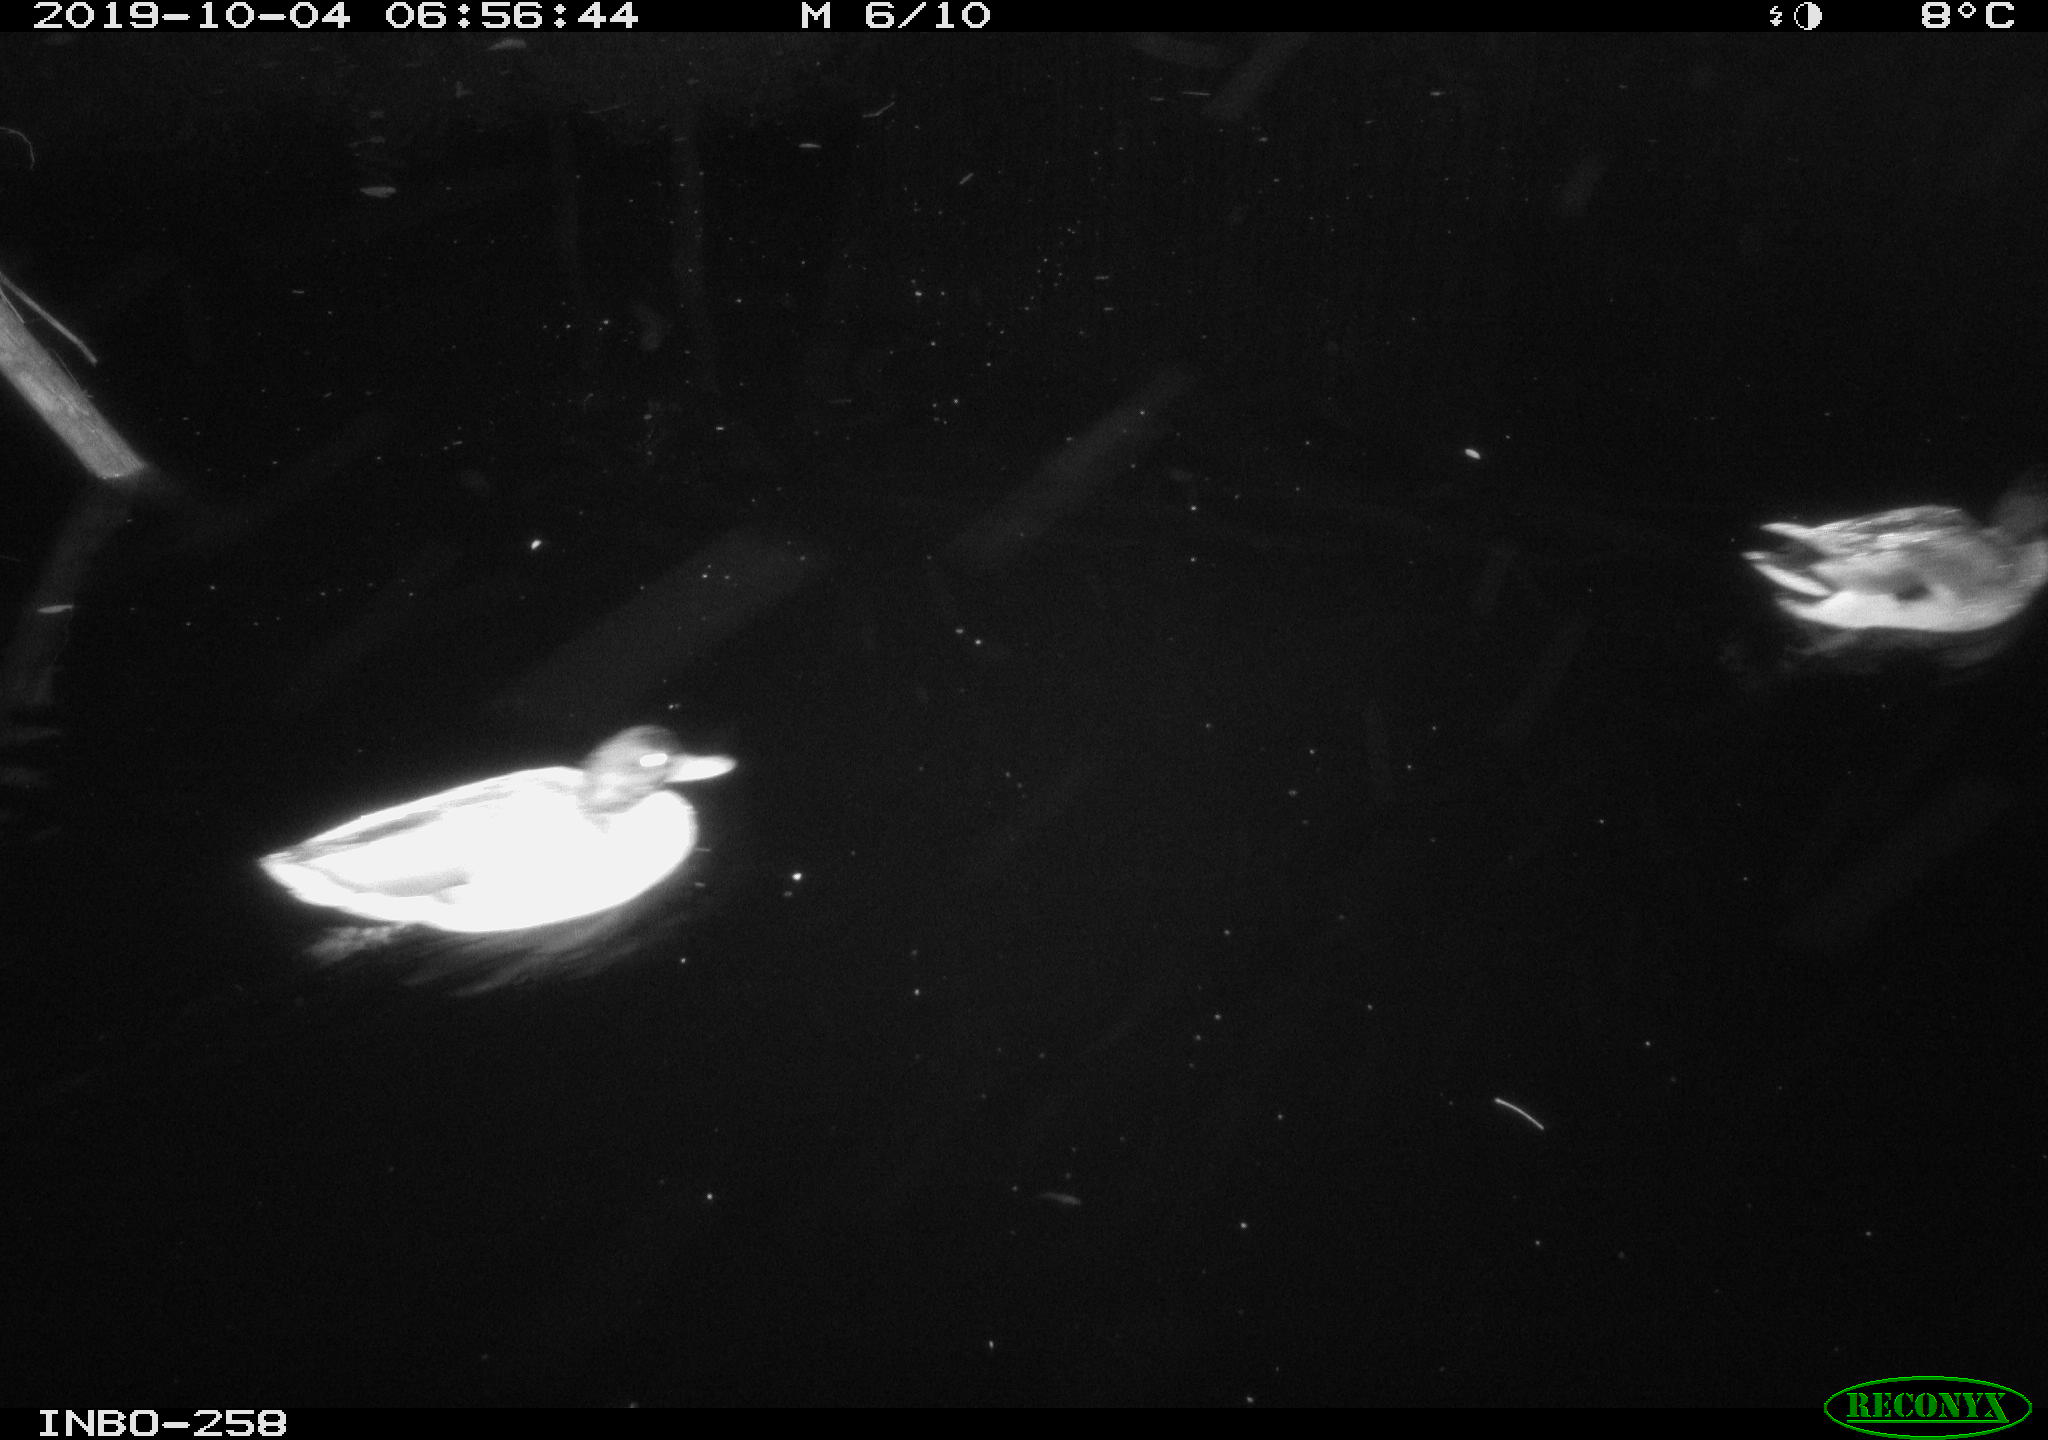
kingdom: Animalia
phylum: Chordata
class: Aves
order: Anseriformes
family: Anatidae
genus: Anas
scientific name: Anas platyrhynchos
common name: Mallard
